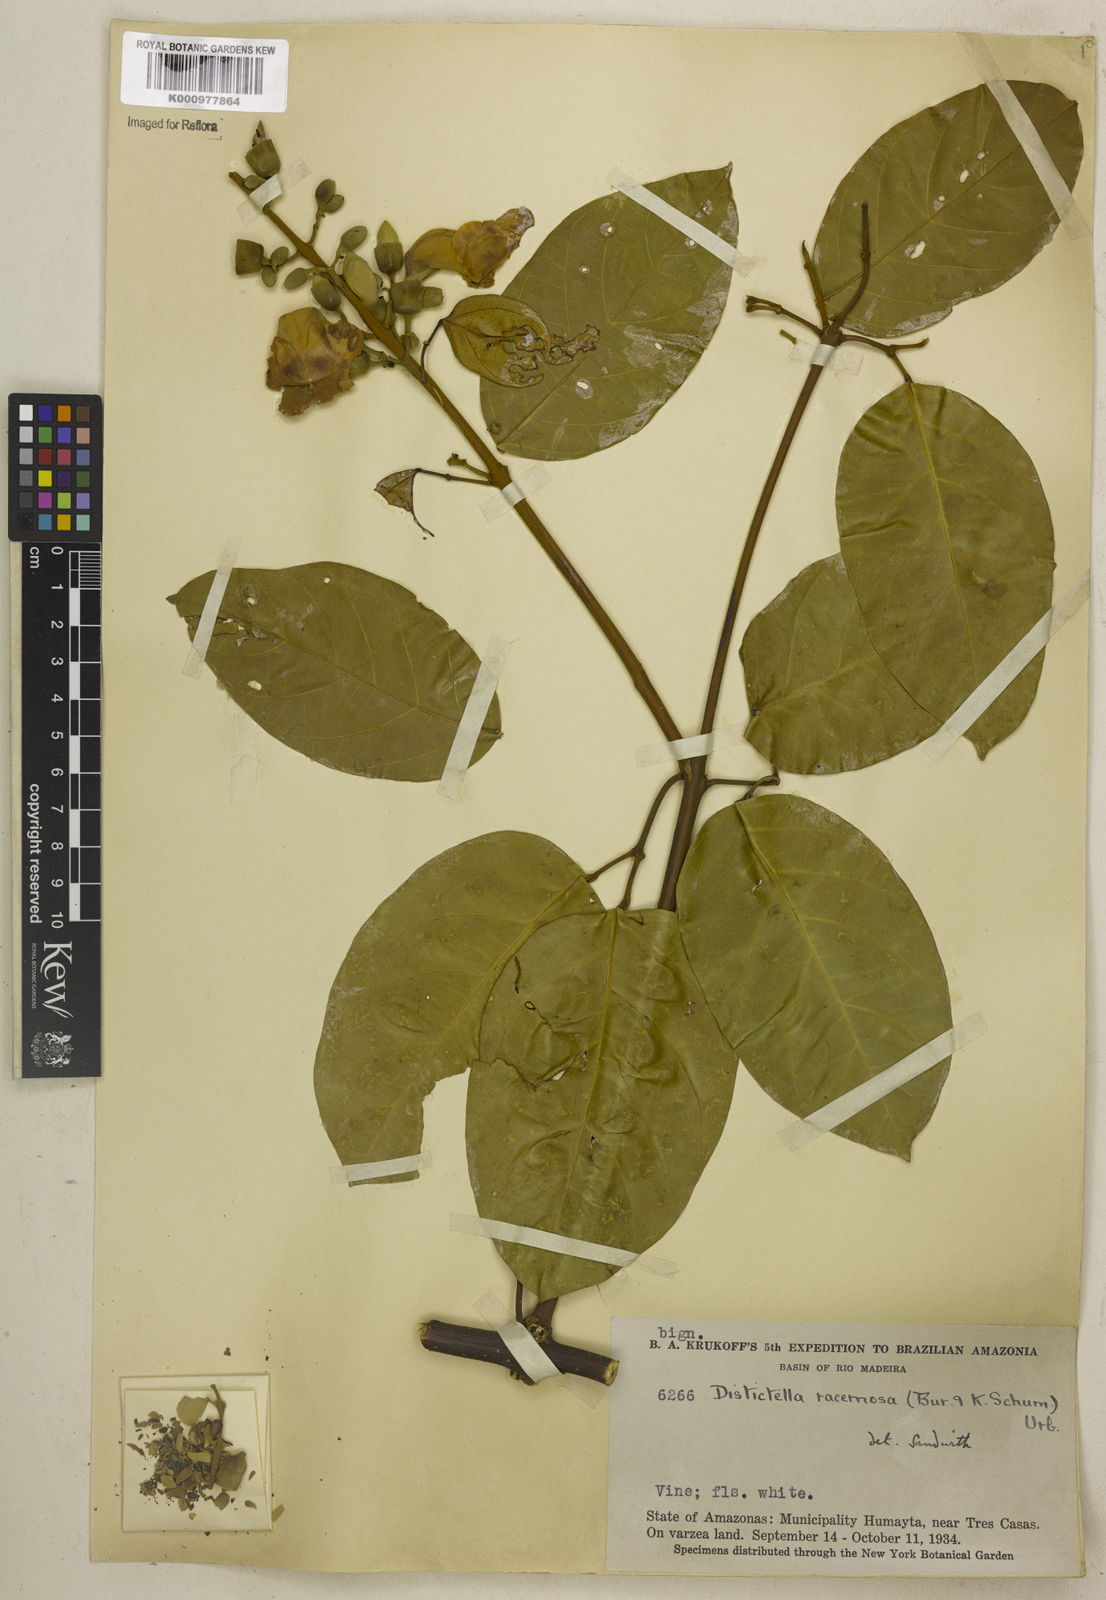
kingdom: Plantae
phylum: Tracheophyta
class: Magnoliopsida
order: Lamiales
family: Bignoniaceae
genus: Amphilophium
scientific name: Amphilophium racemosum
